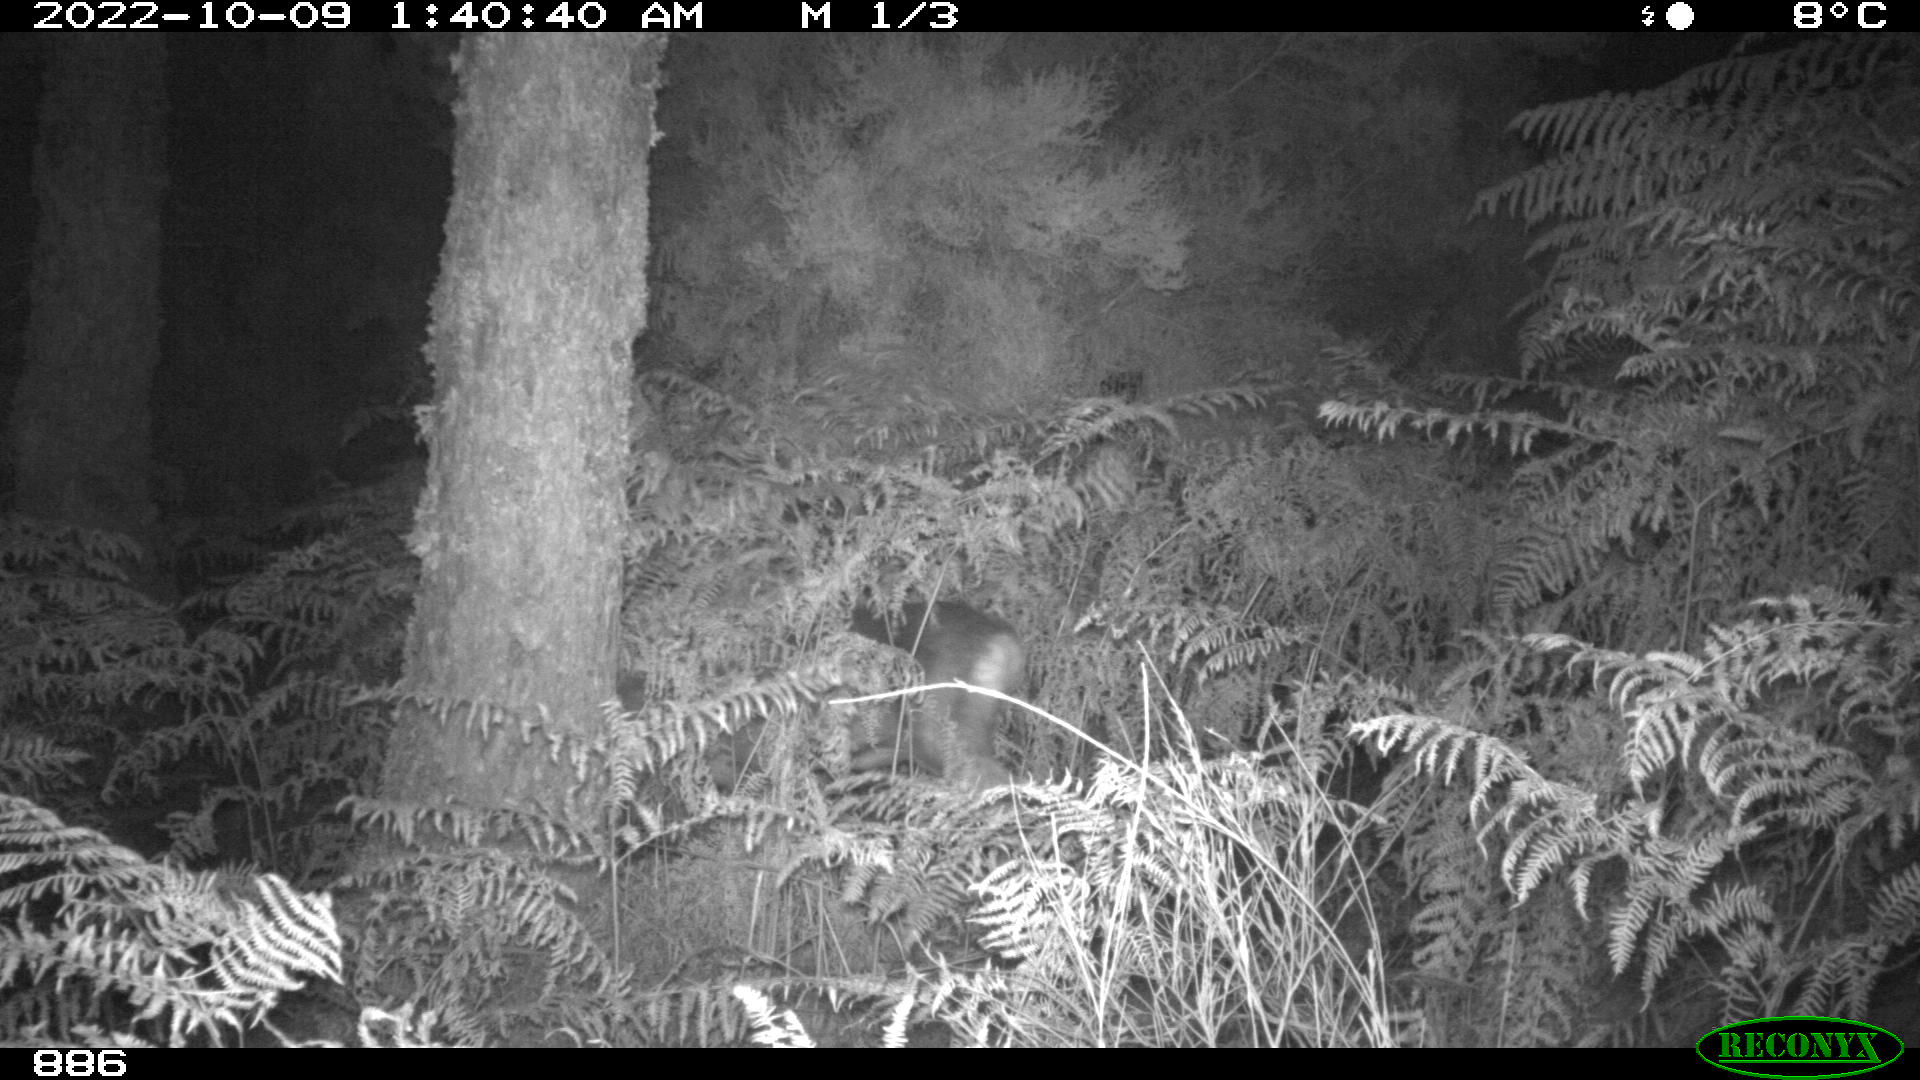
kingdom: Animalia
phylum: Chordata
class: Mammalia
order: Artiodactyla
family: Cervidae
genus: Capreolus
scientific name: Capreolus capreolus
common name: Western roe deer
